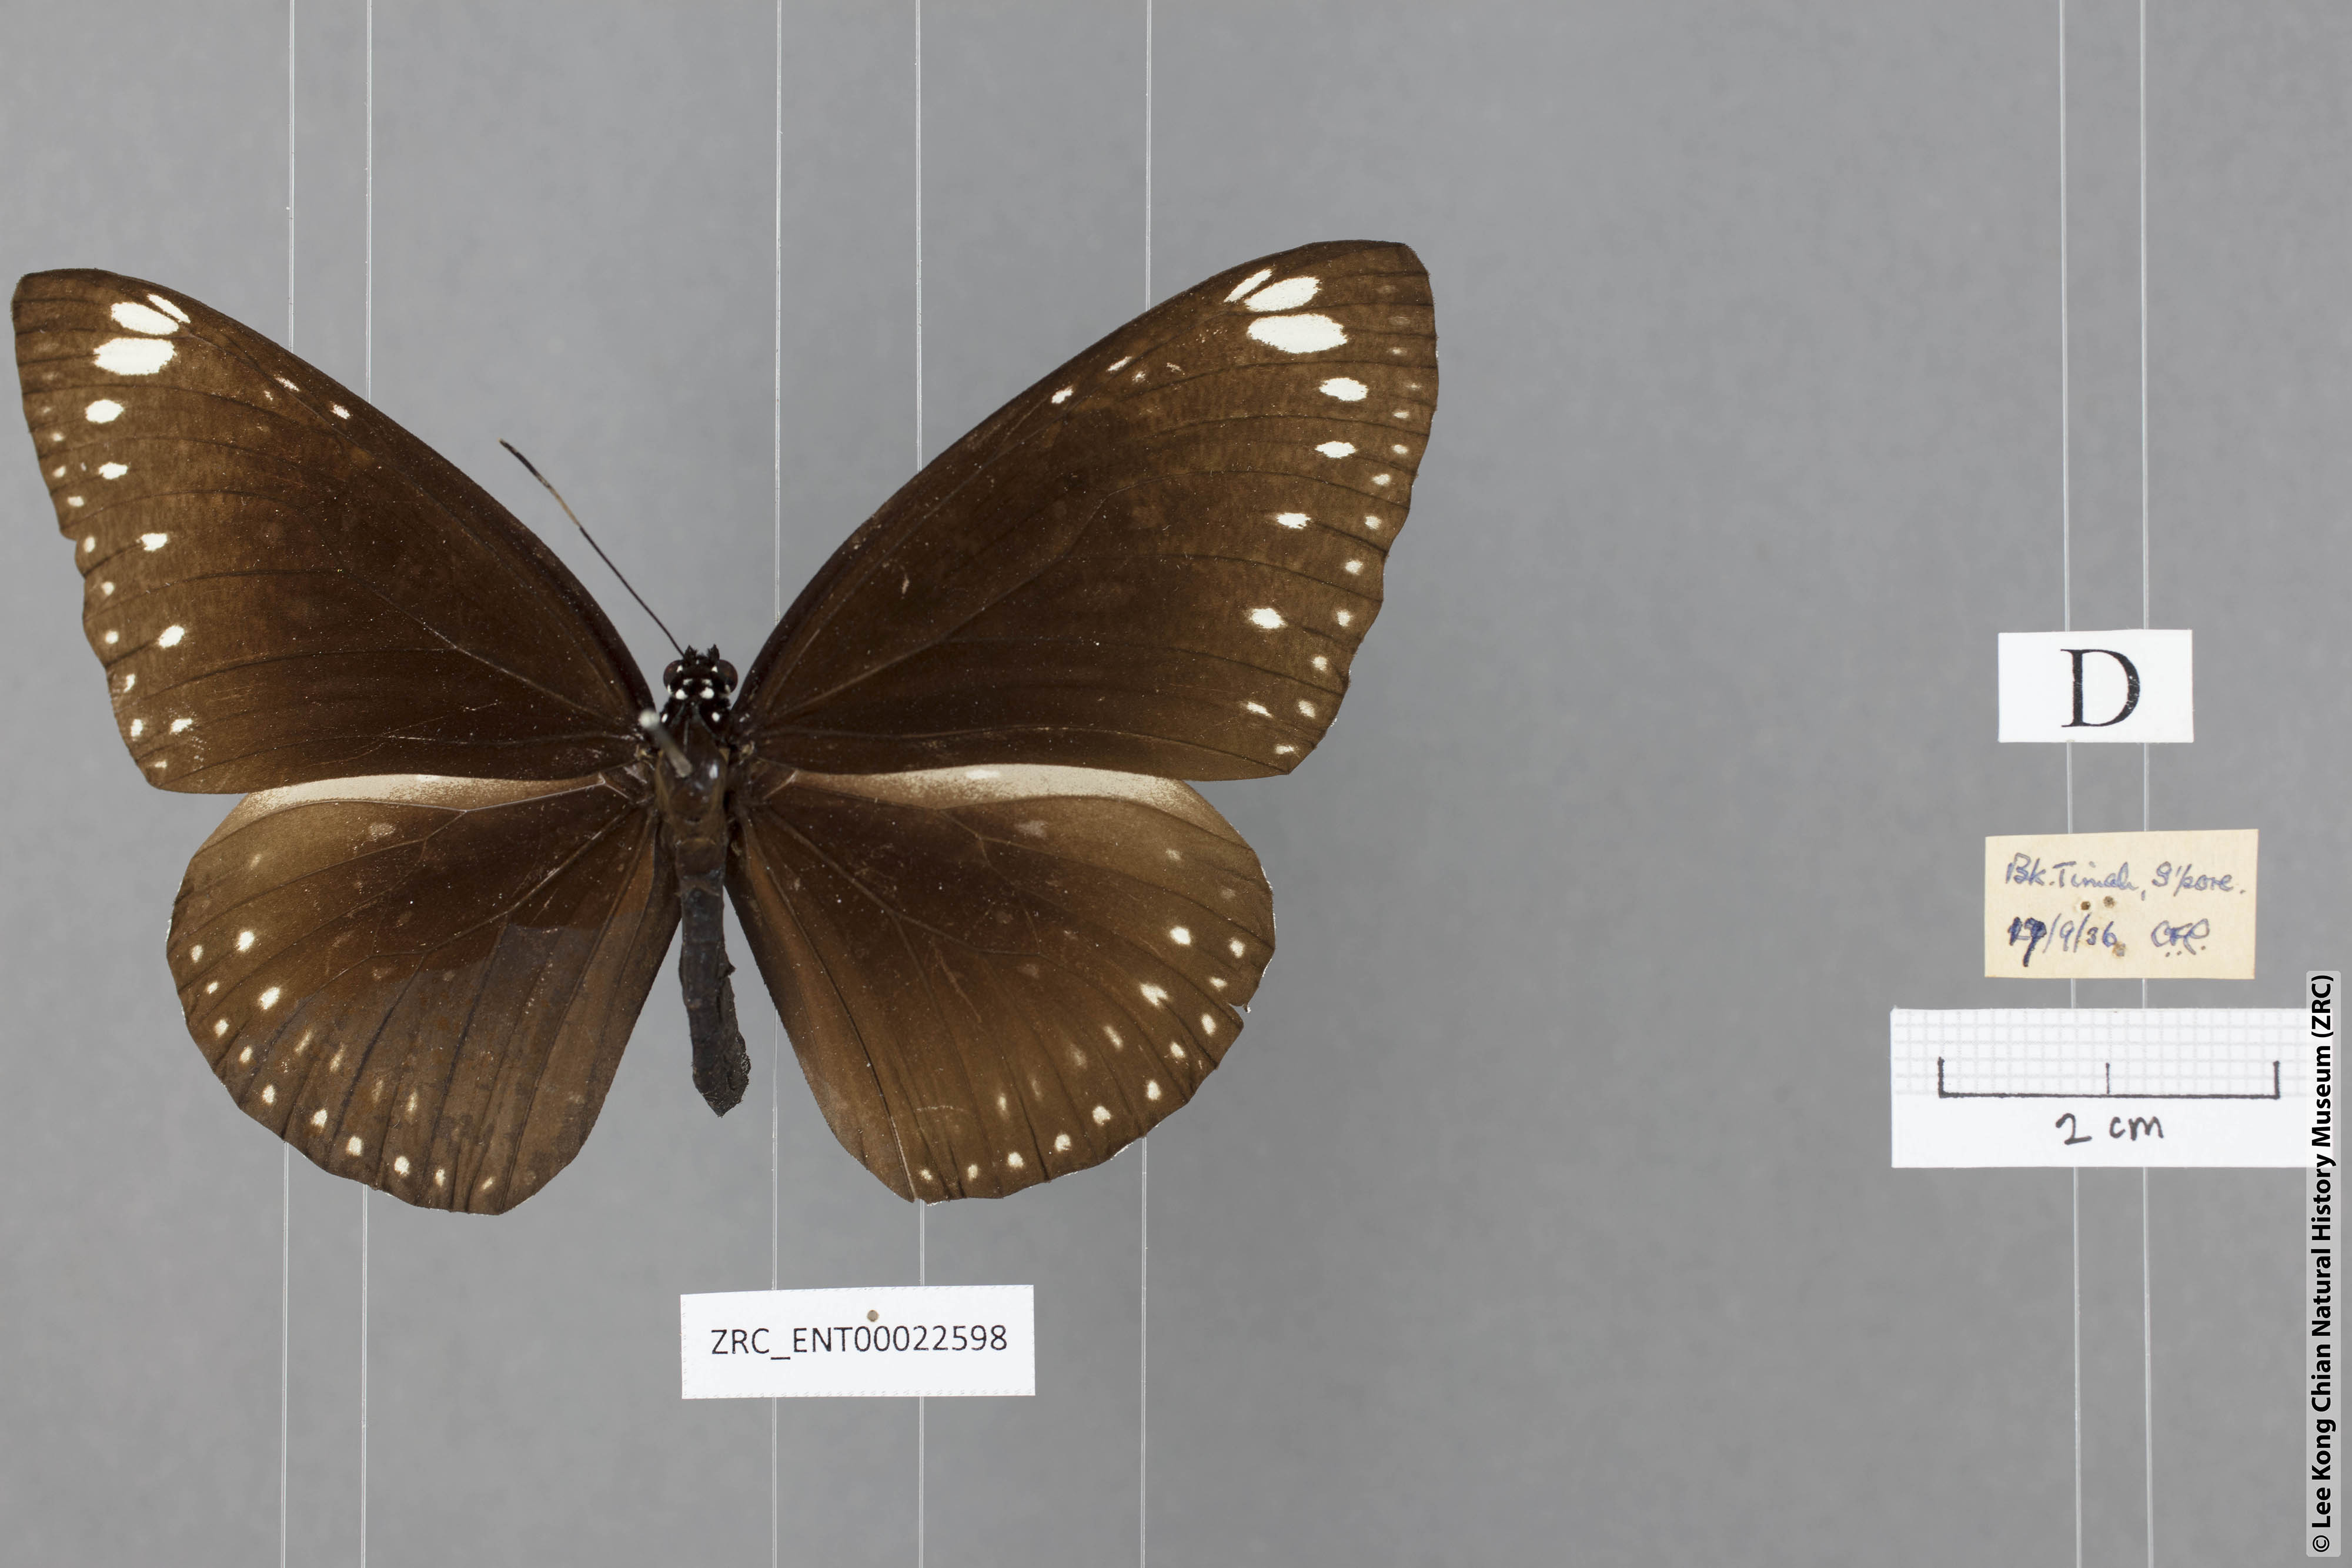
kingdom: Animalia
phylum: Arthropoda
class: Insecta
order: Lepidoptera
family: Nymphalidae
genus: Euploea
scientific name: Euploea midamus
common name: Blue-spotted crow butterfly
